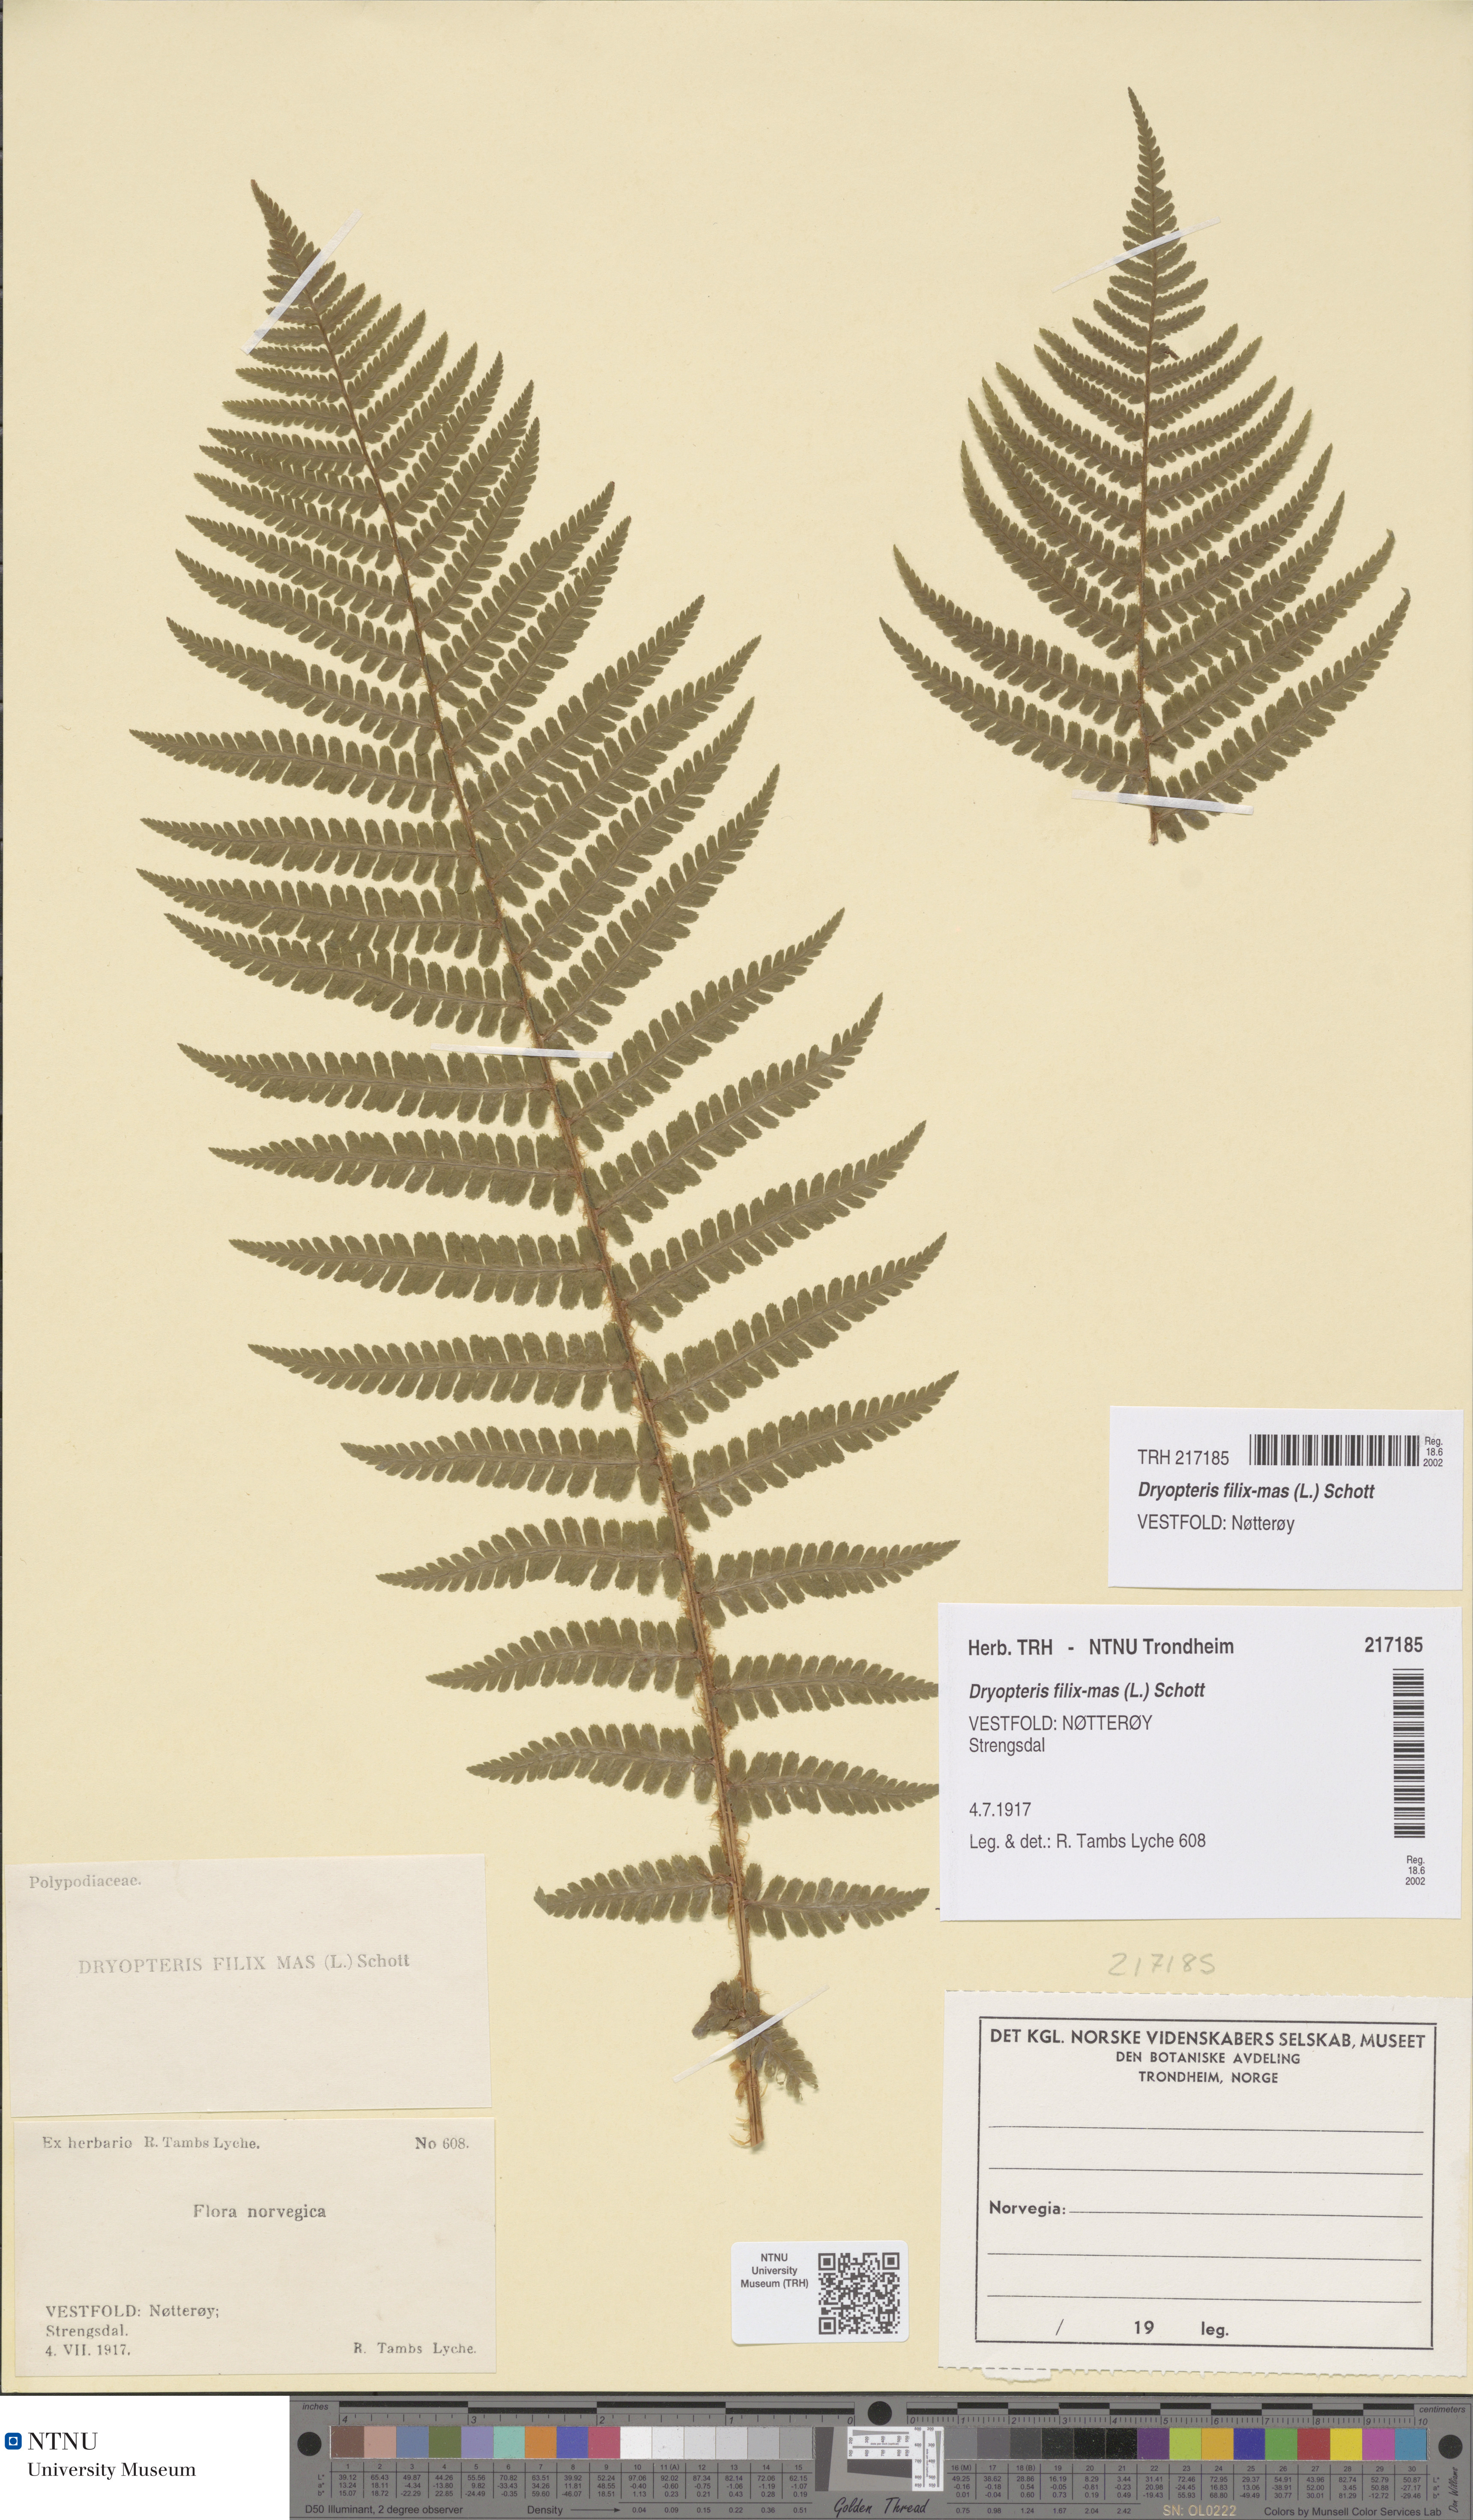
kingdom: Plantae
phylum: Tracheophyta
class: Polypodiopsida
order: Polypodiales
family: Dryopteridaceae
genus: Dryopteris
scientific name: Dryopteris filix-mas
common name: Male fern
